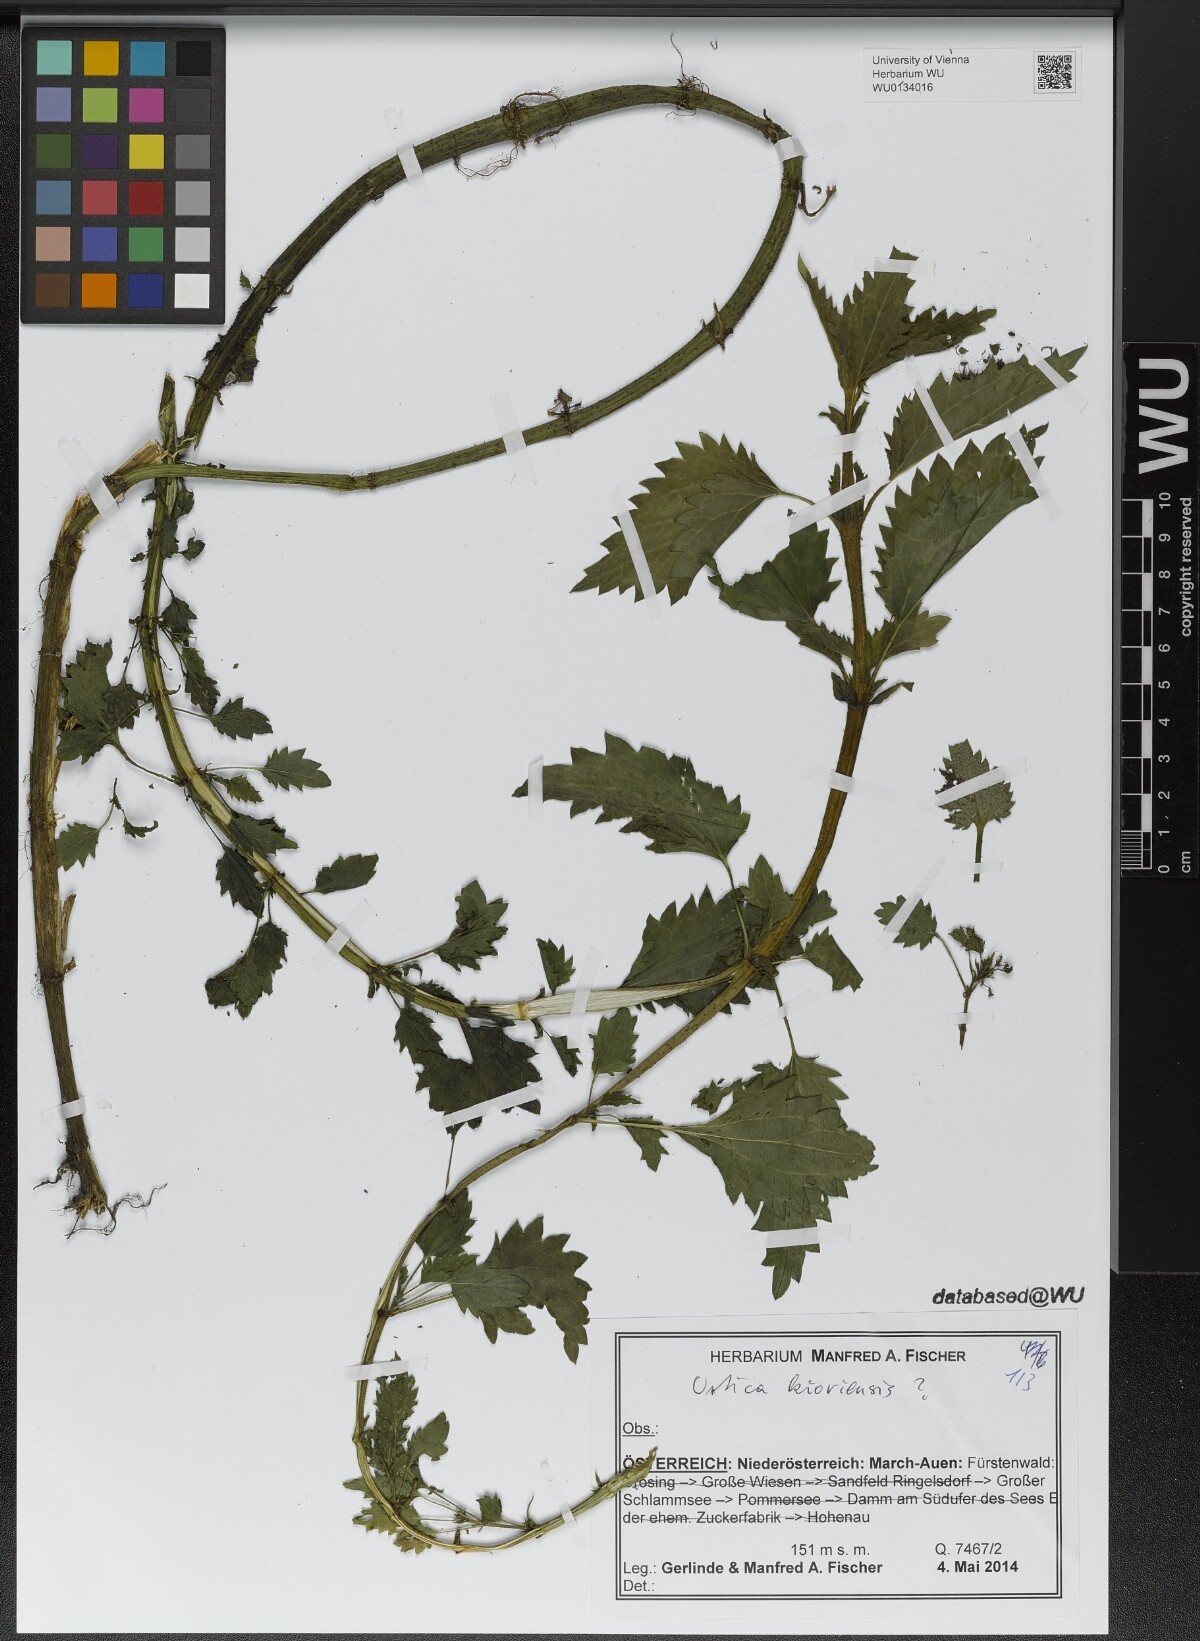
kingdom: Plantae
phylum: Tracheophyta
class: Magnoliopsida
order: Rosales
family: Urticaceae
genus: Urtica
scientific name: Urtica kioviensis
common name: Kievan nettle
